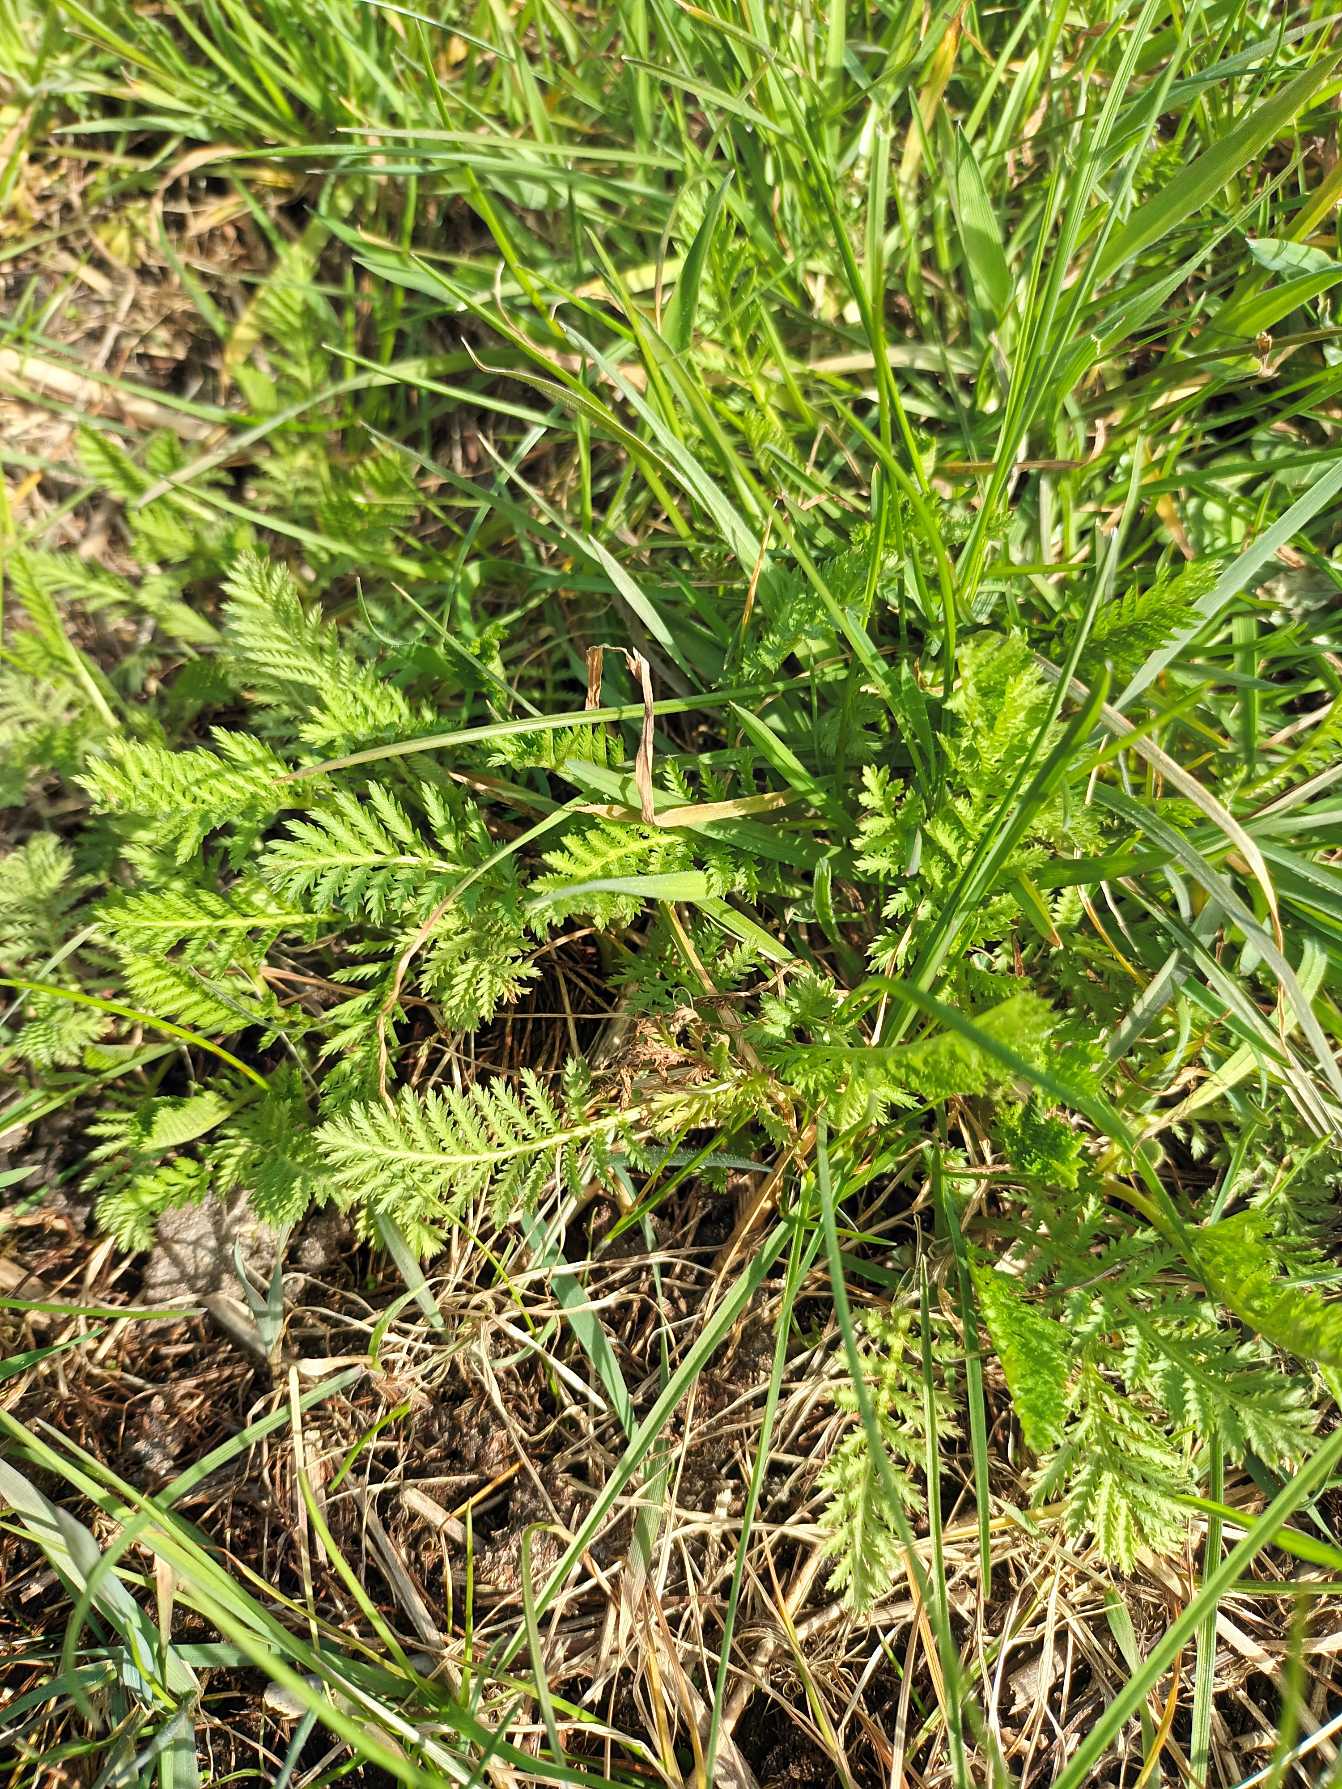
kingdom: Plantae
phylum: Tracheophyta
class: Magnoliopsida
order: Asterales
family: Asteraceae
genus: Tanacetum
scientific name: Tanacetum vulgare
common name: Rejnfan
